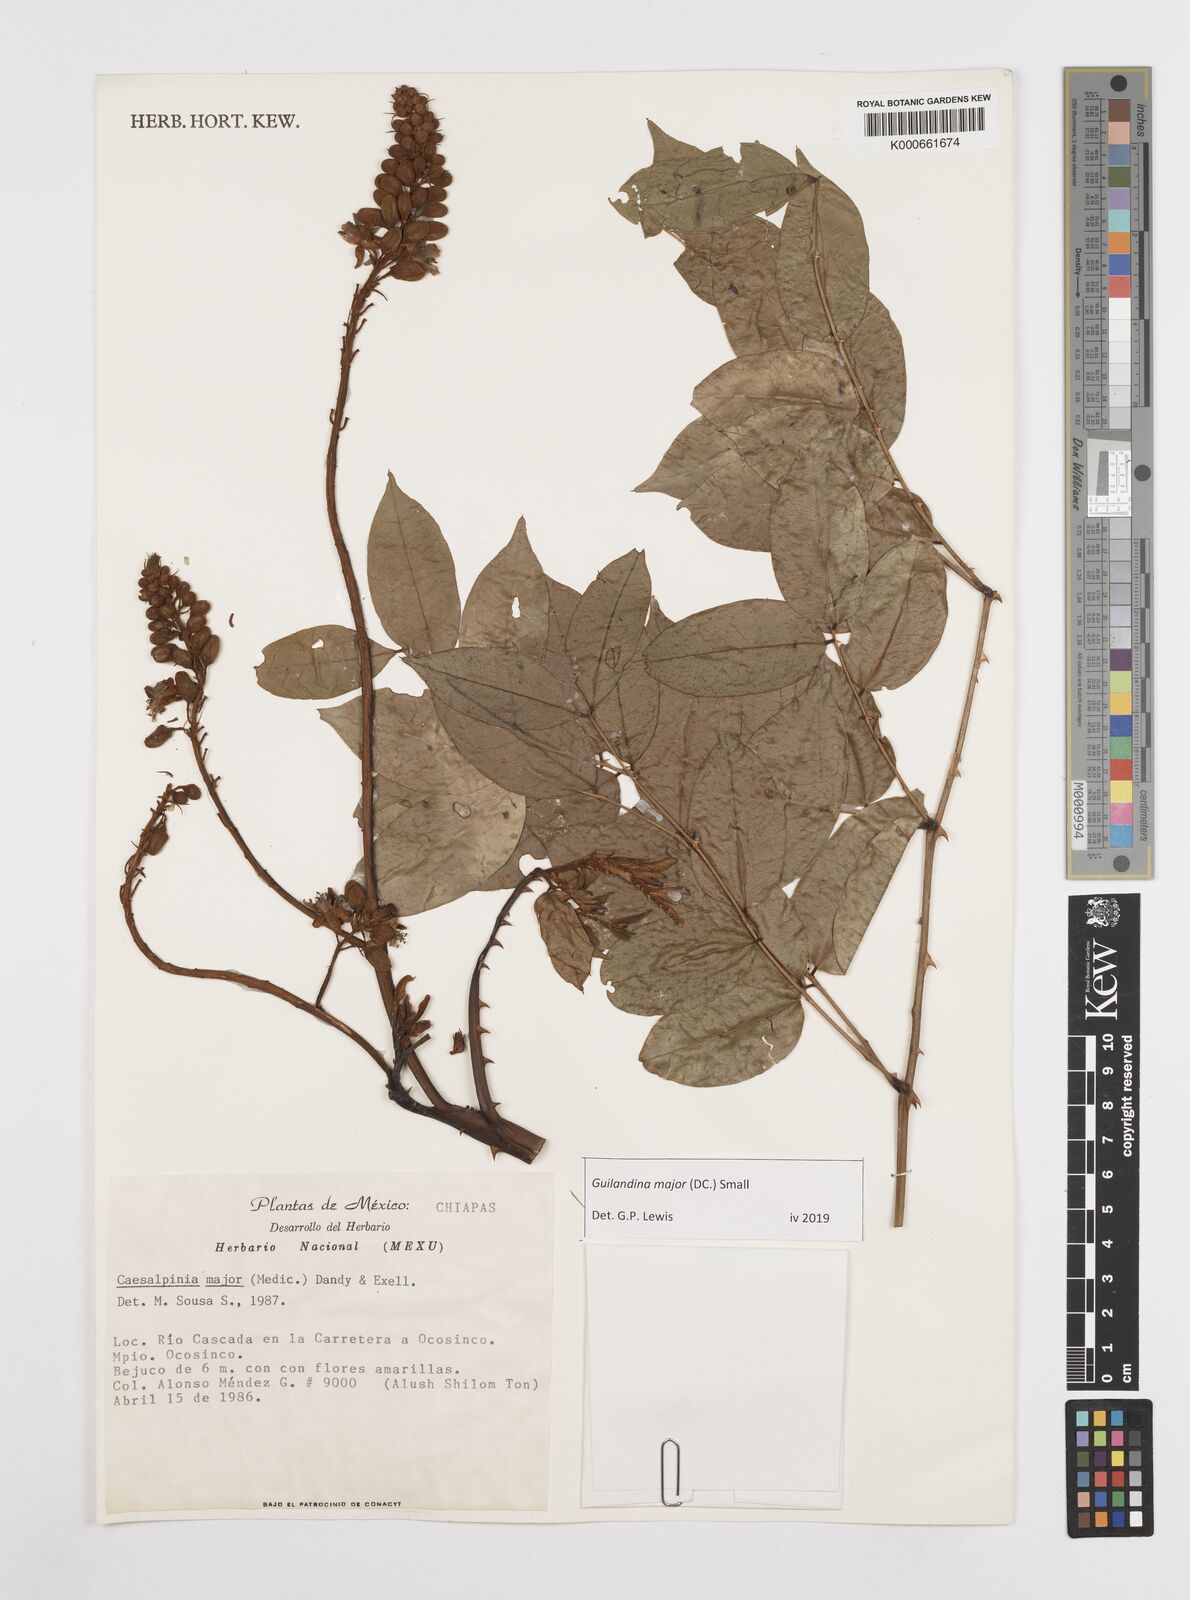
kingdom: Plantae
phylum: Tracheophyta
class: Magnoliopsida
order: Fabales
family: Fabaceae
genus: Guilandina
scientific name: Guilandina major
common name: Hawai'i pearls
